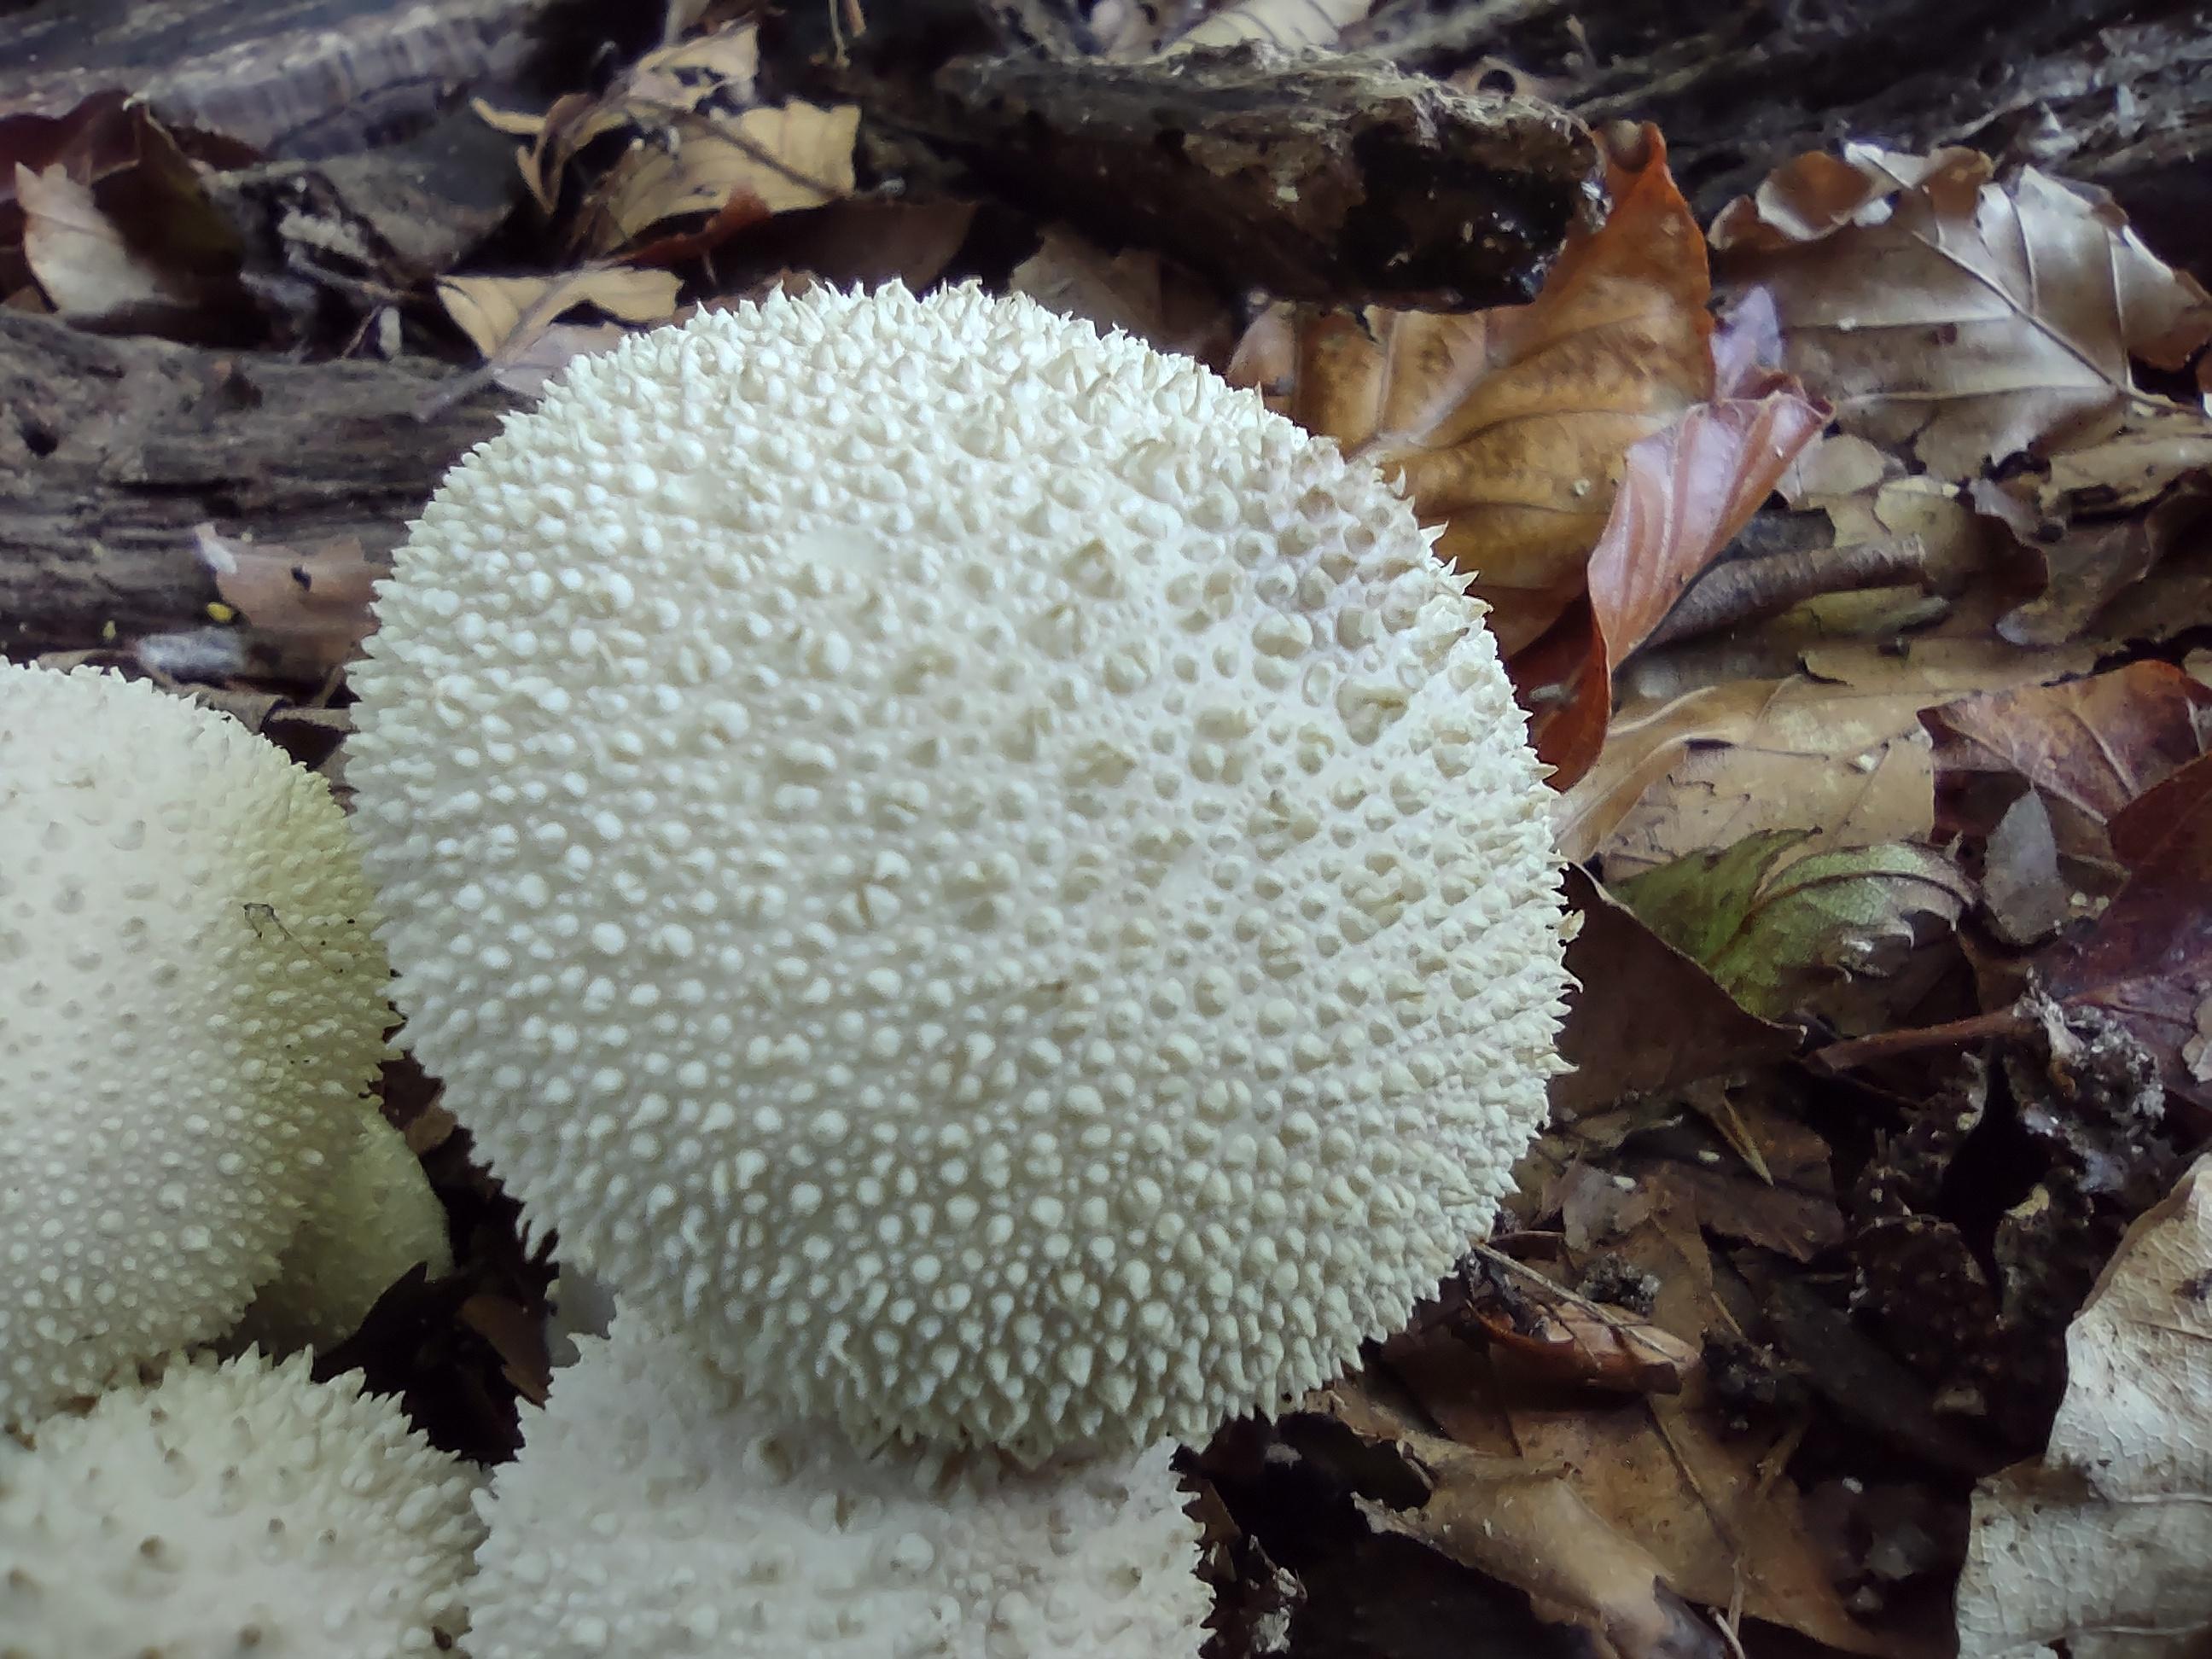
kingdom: Fungi
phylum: Basidiomycota
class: Agaricomycetes
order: Agaricales
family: Lycoperdaceae
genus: Lycoperdon
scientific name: Lycoperdon perlatum
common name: krystal-støvbold
